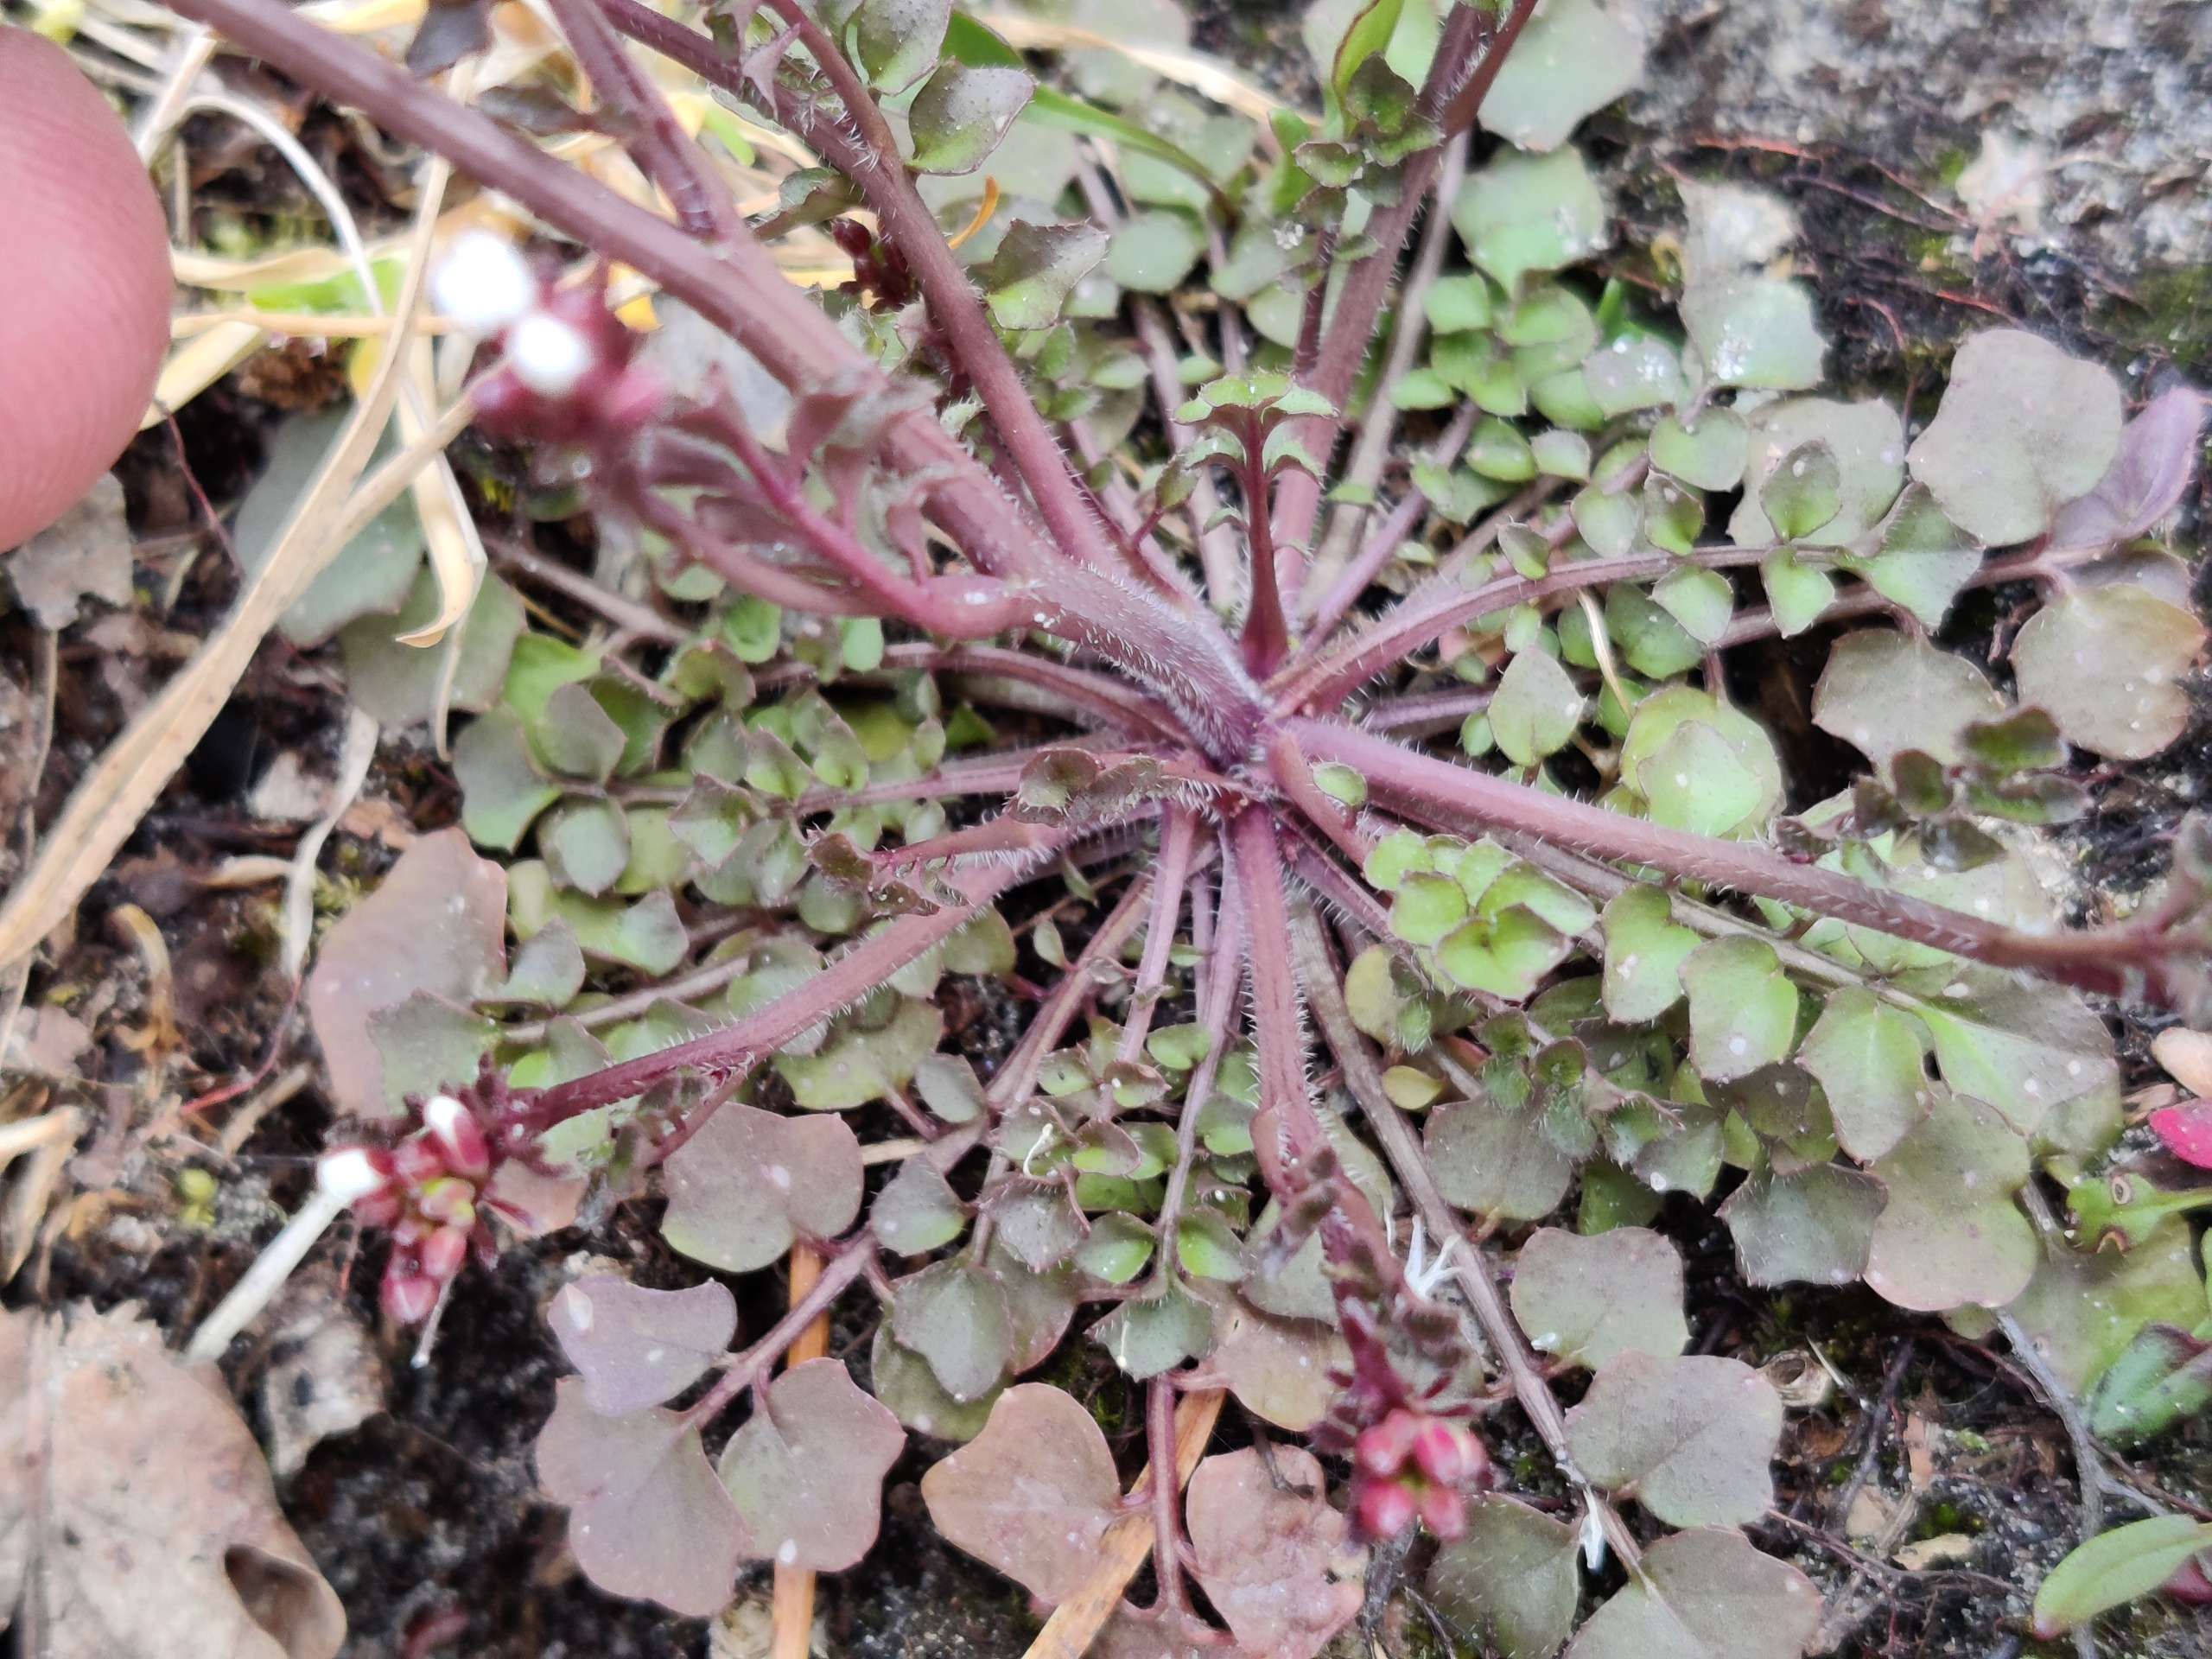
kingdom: Plantae
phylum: Tracheophyta
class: Magnoliopsida
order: Brassicales
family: Brassicaceae
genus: Cardamine
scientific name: Cardamine hirsuta
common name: Roset-springklap
